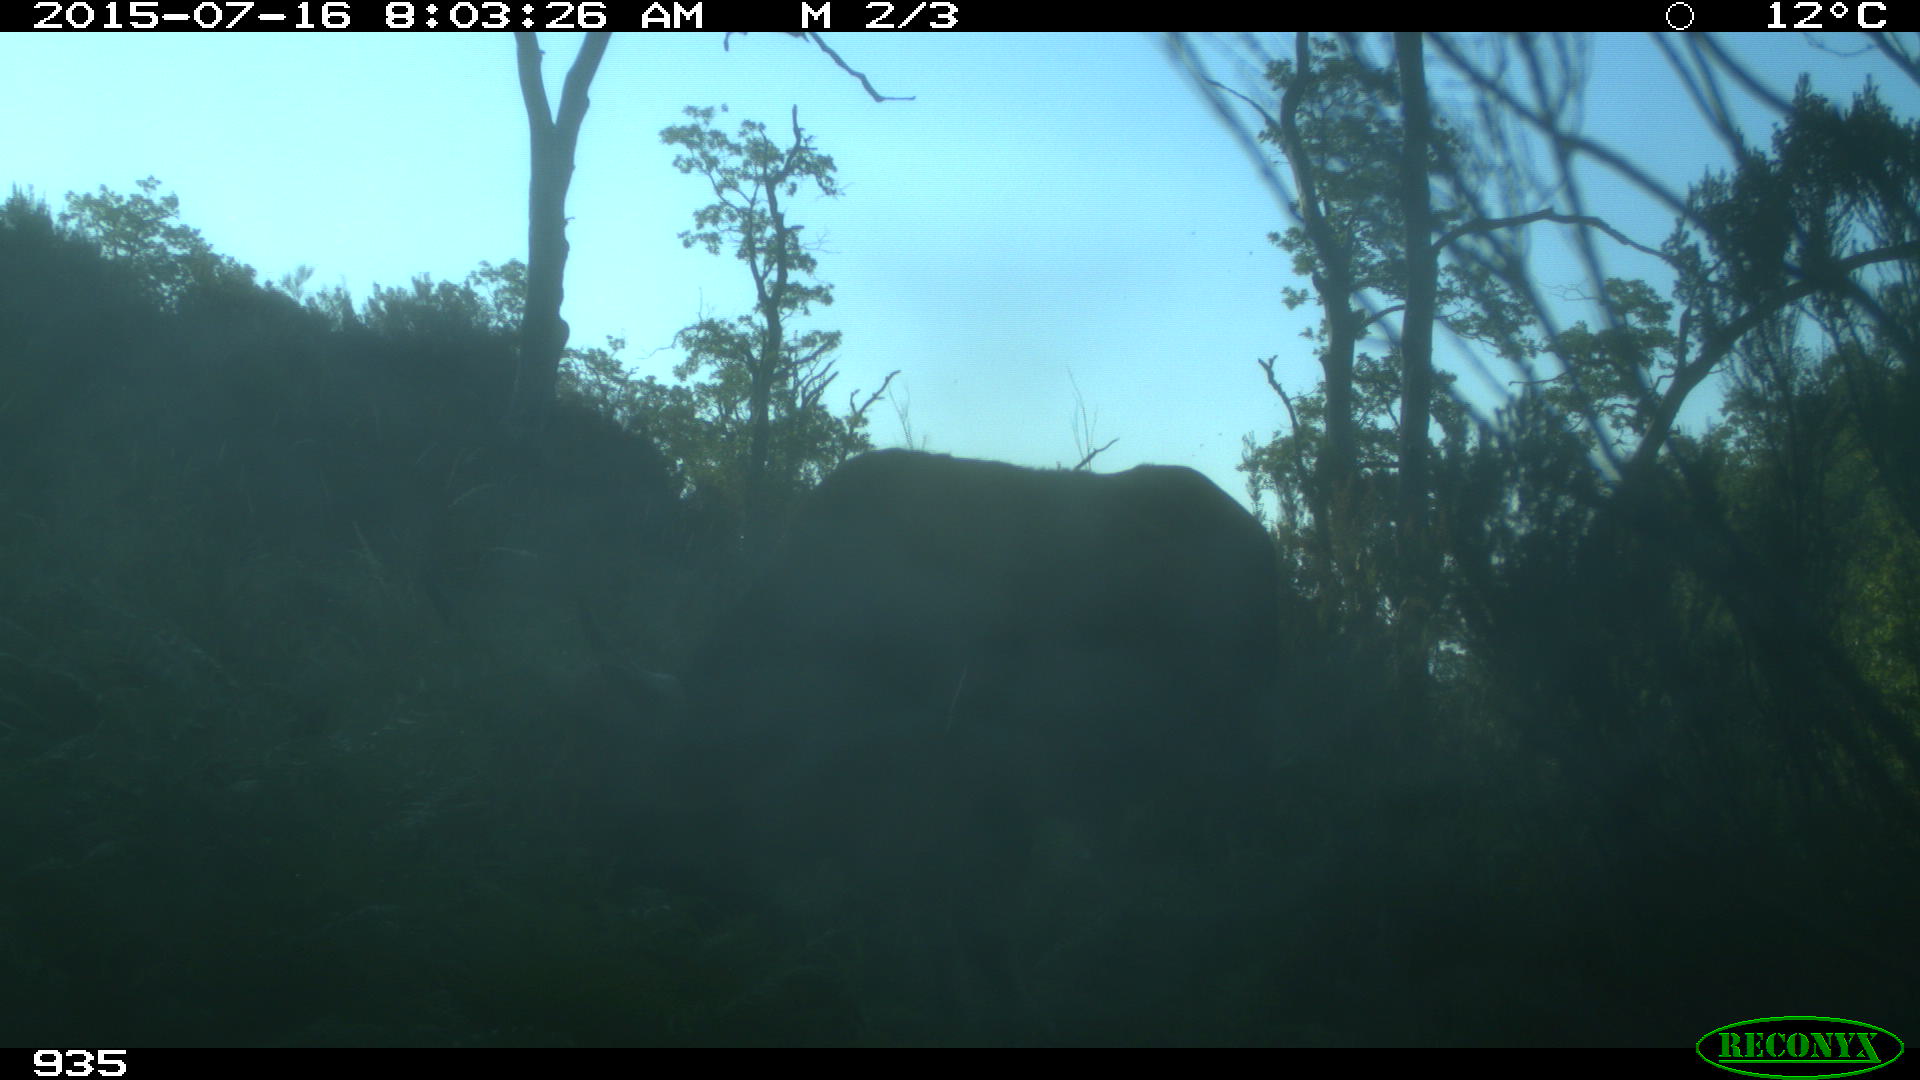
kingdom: Animalia
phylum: Chordata
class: Mammalia
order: Artiodactyla
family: Bovidae
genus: Bos
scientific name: Bos taurus
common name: Domesticated cattle
